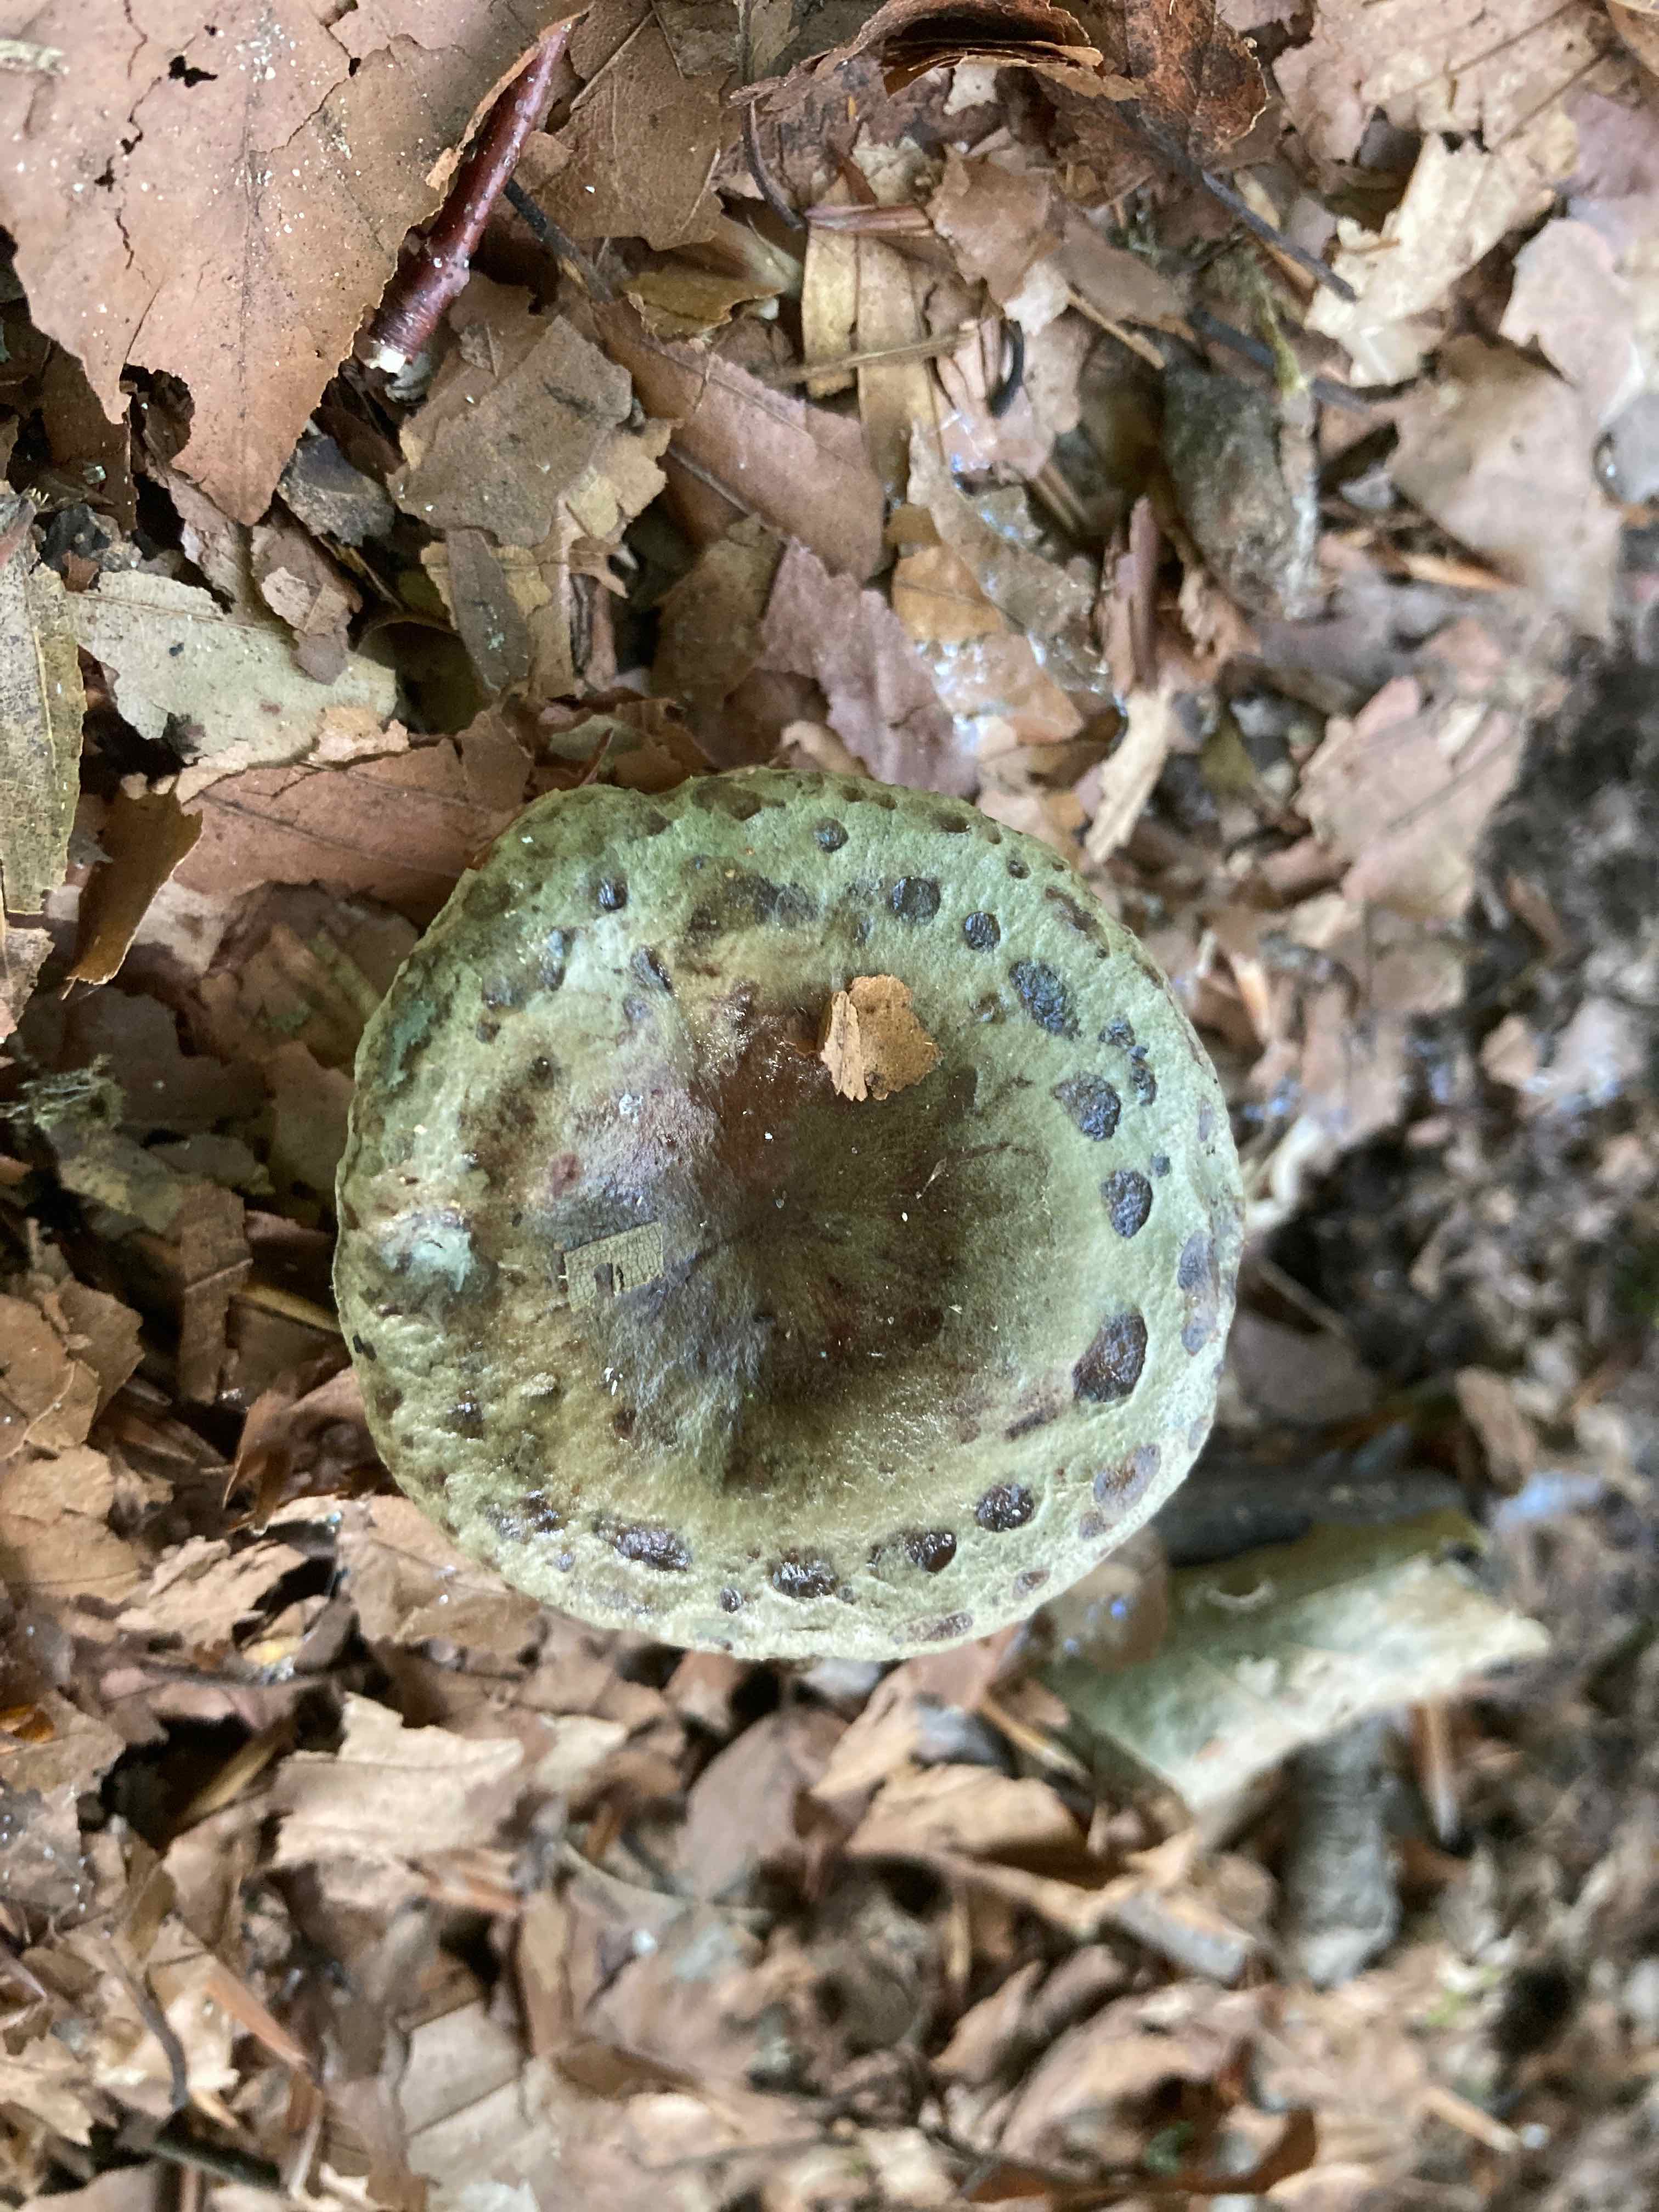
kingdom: Fungi
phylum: Basidiomycota
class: Agaricomycetes
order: Russulales
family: Russulaceae
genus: Lactarius
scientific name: Lactarius blennius
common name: dråbeplettet mælkehat
